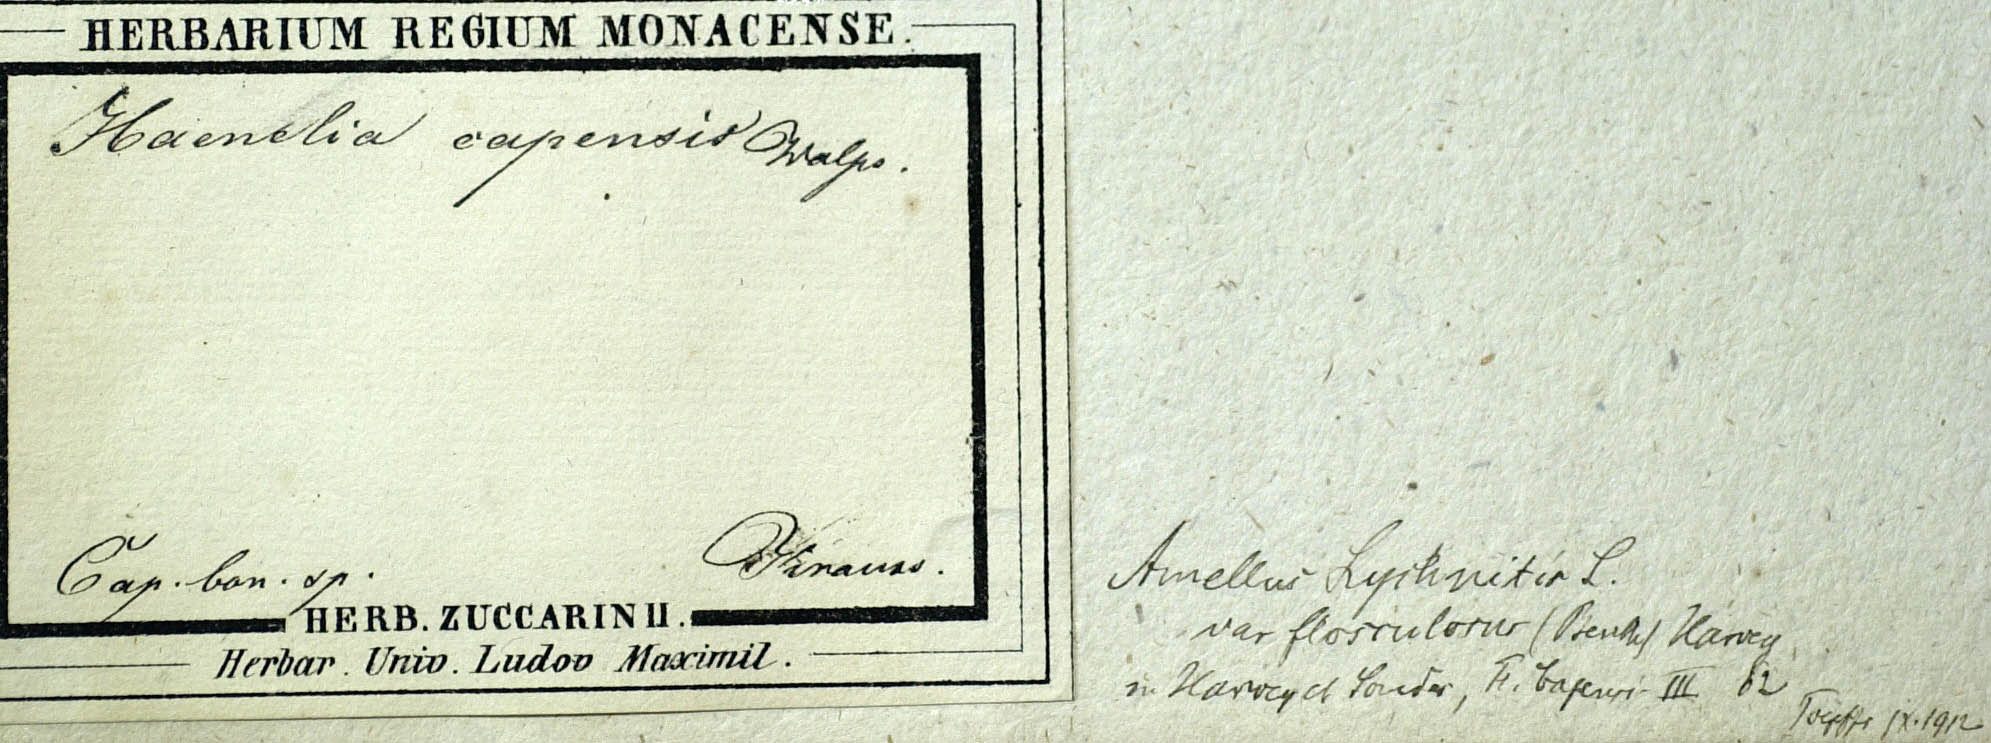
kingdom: Plantae
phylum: Tracheophyta
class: Magnoliopsida
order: Asterales
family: Asteraceae
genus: Amellus
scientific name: Amellus capensis
